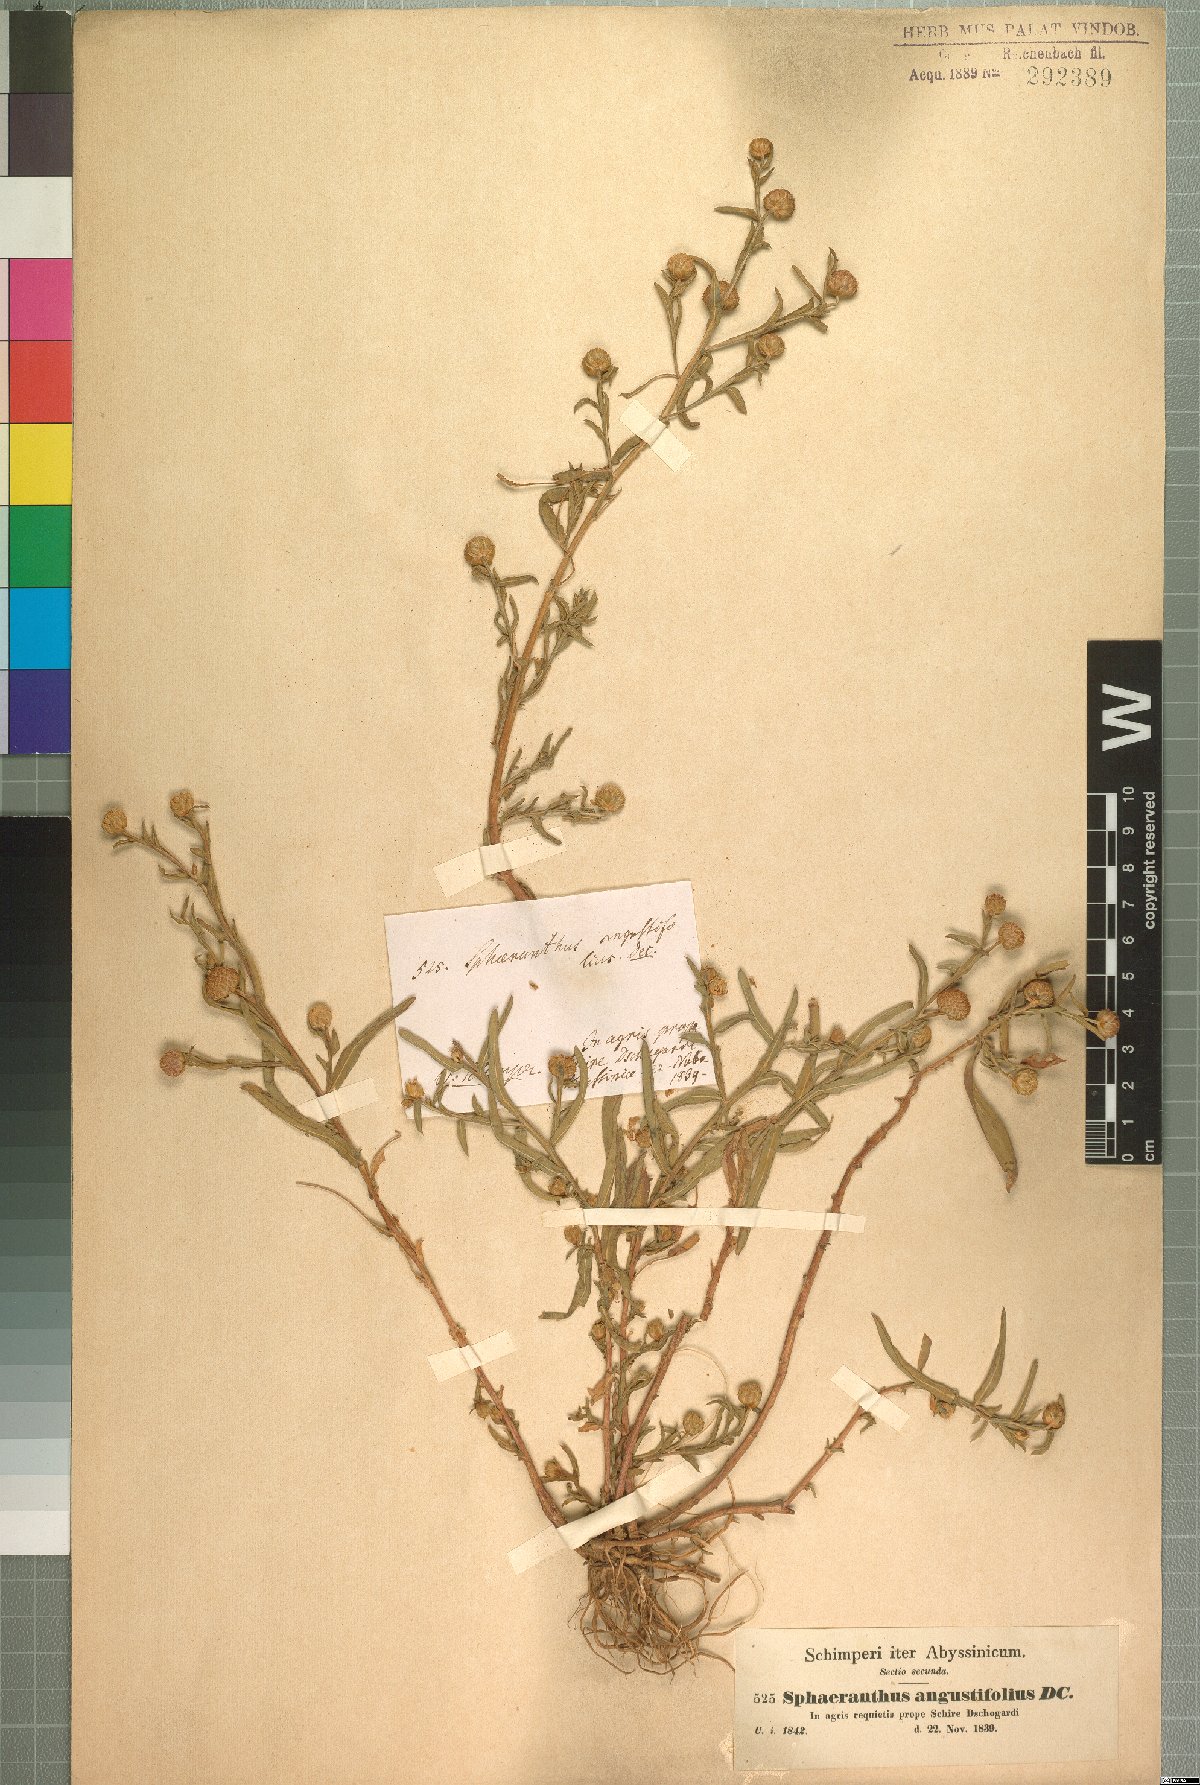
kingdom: Plantae
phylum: Tracheophyta
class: Magnoliopsida
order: Asterales
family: Asteraceae
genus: Sphaeranthus
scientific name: Sphaeranthus steetzii
